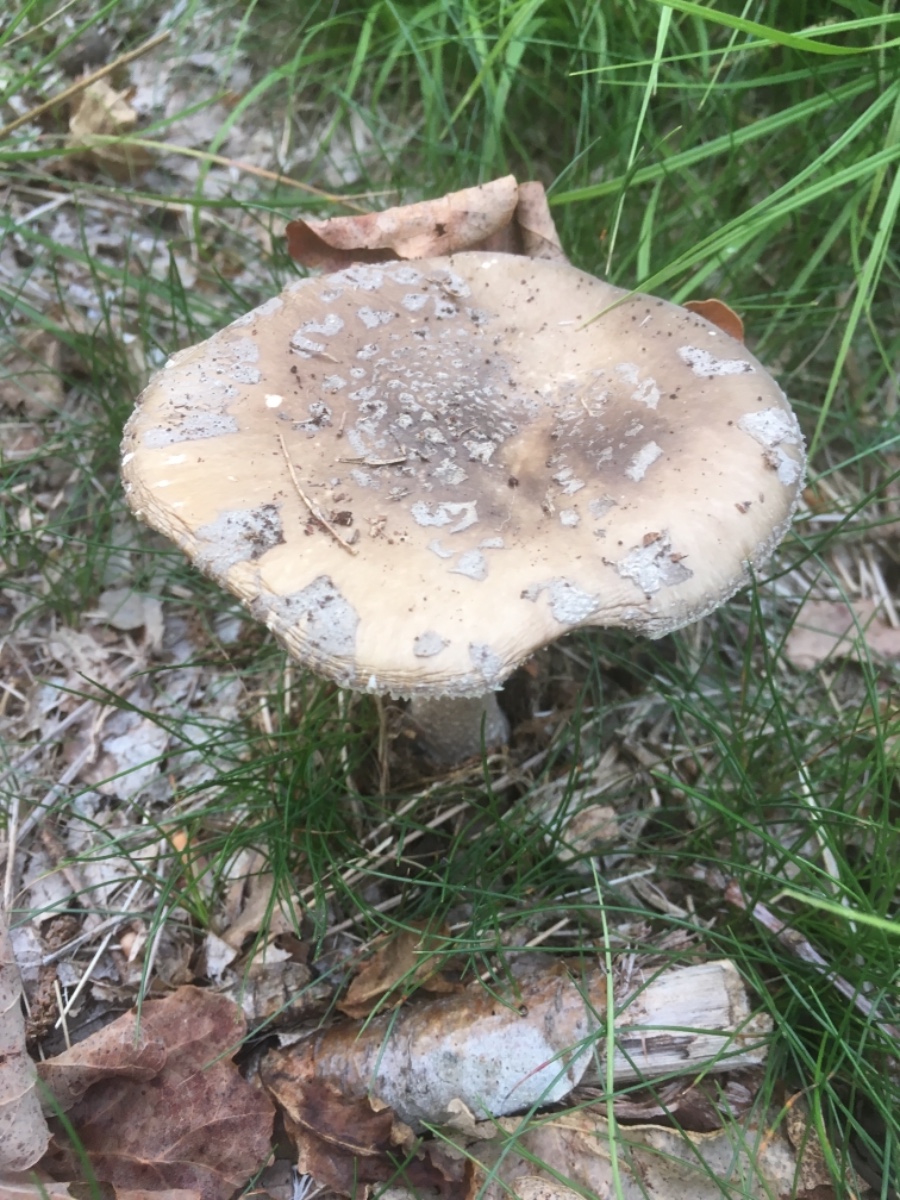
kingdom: Fungi
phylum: Basidiomycota
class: Agaricomycetes
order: Agaricales
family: Amanitaceae
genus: Amanita
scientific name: Amanita
